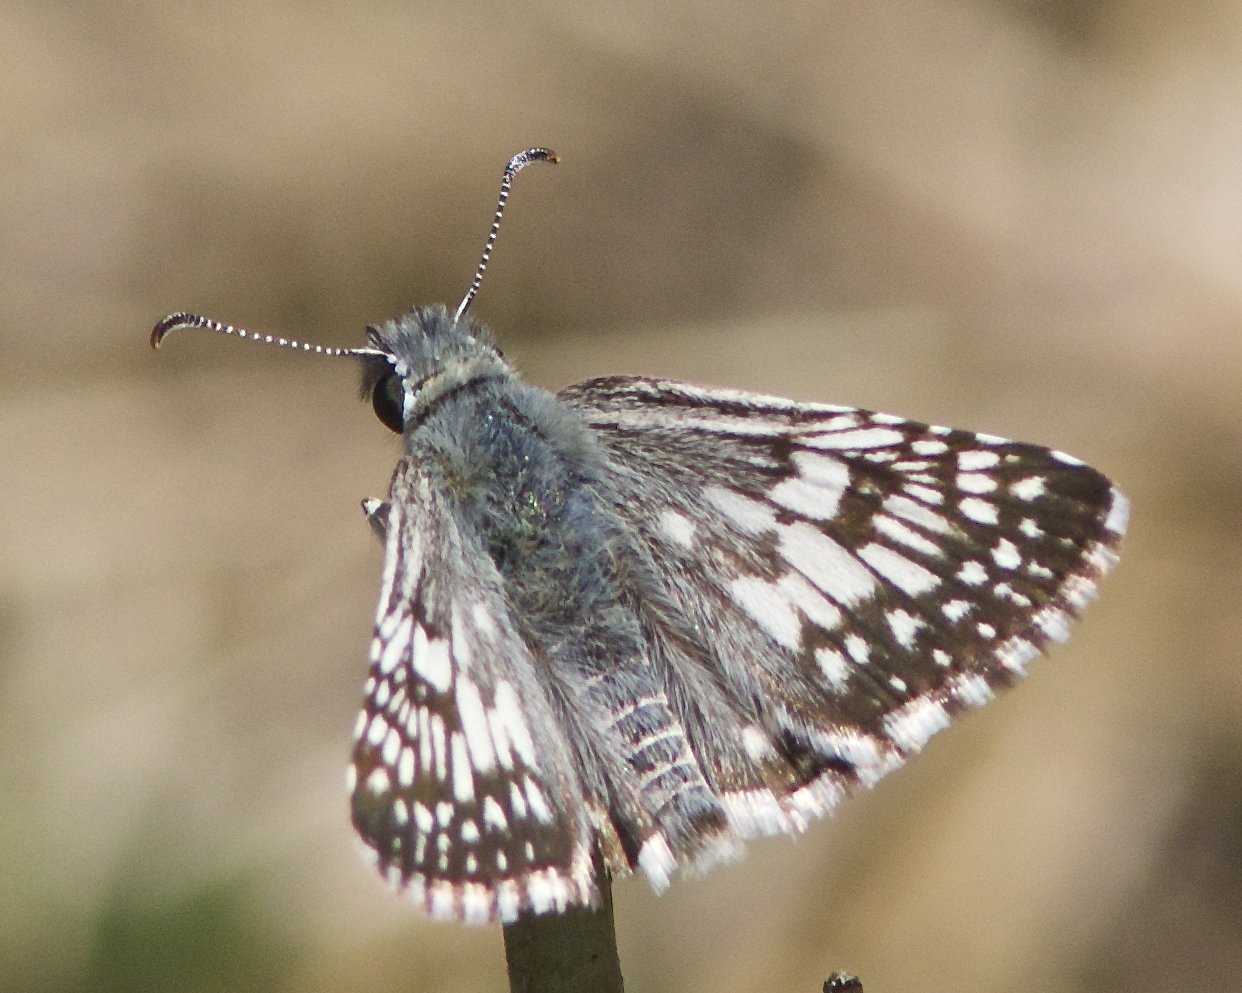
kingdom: Animalia
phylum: Arthropoda
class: Insecta
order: Lepidoptera
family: Hesperiidae
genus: Pyrgus
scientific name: Pyrgus communis
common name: Common Checkered-Skipper
